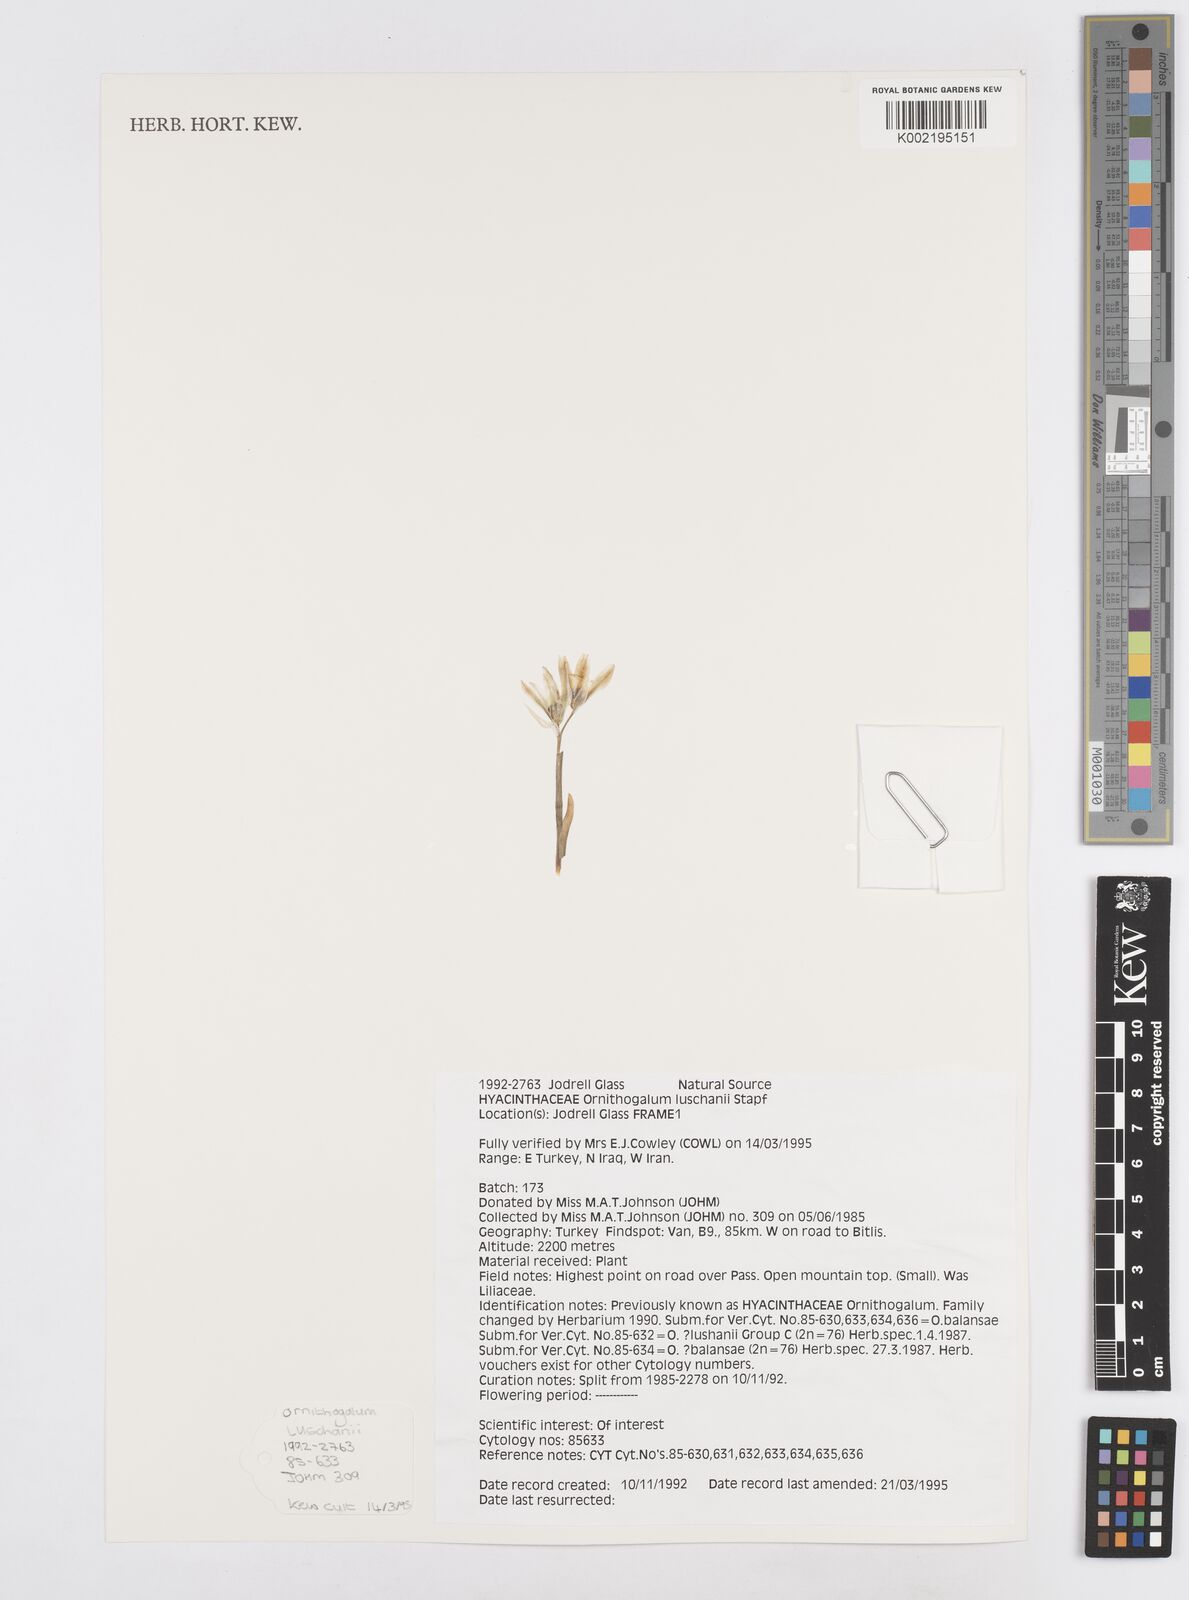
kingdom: Plantae
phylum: Tracheophyta
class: Liliopsida
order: Asparagales
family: Asparagaceae
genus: Ornithogalum
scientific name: Ornithogalum luschanii
